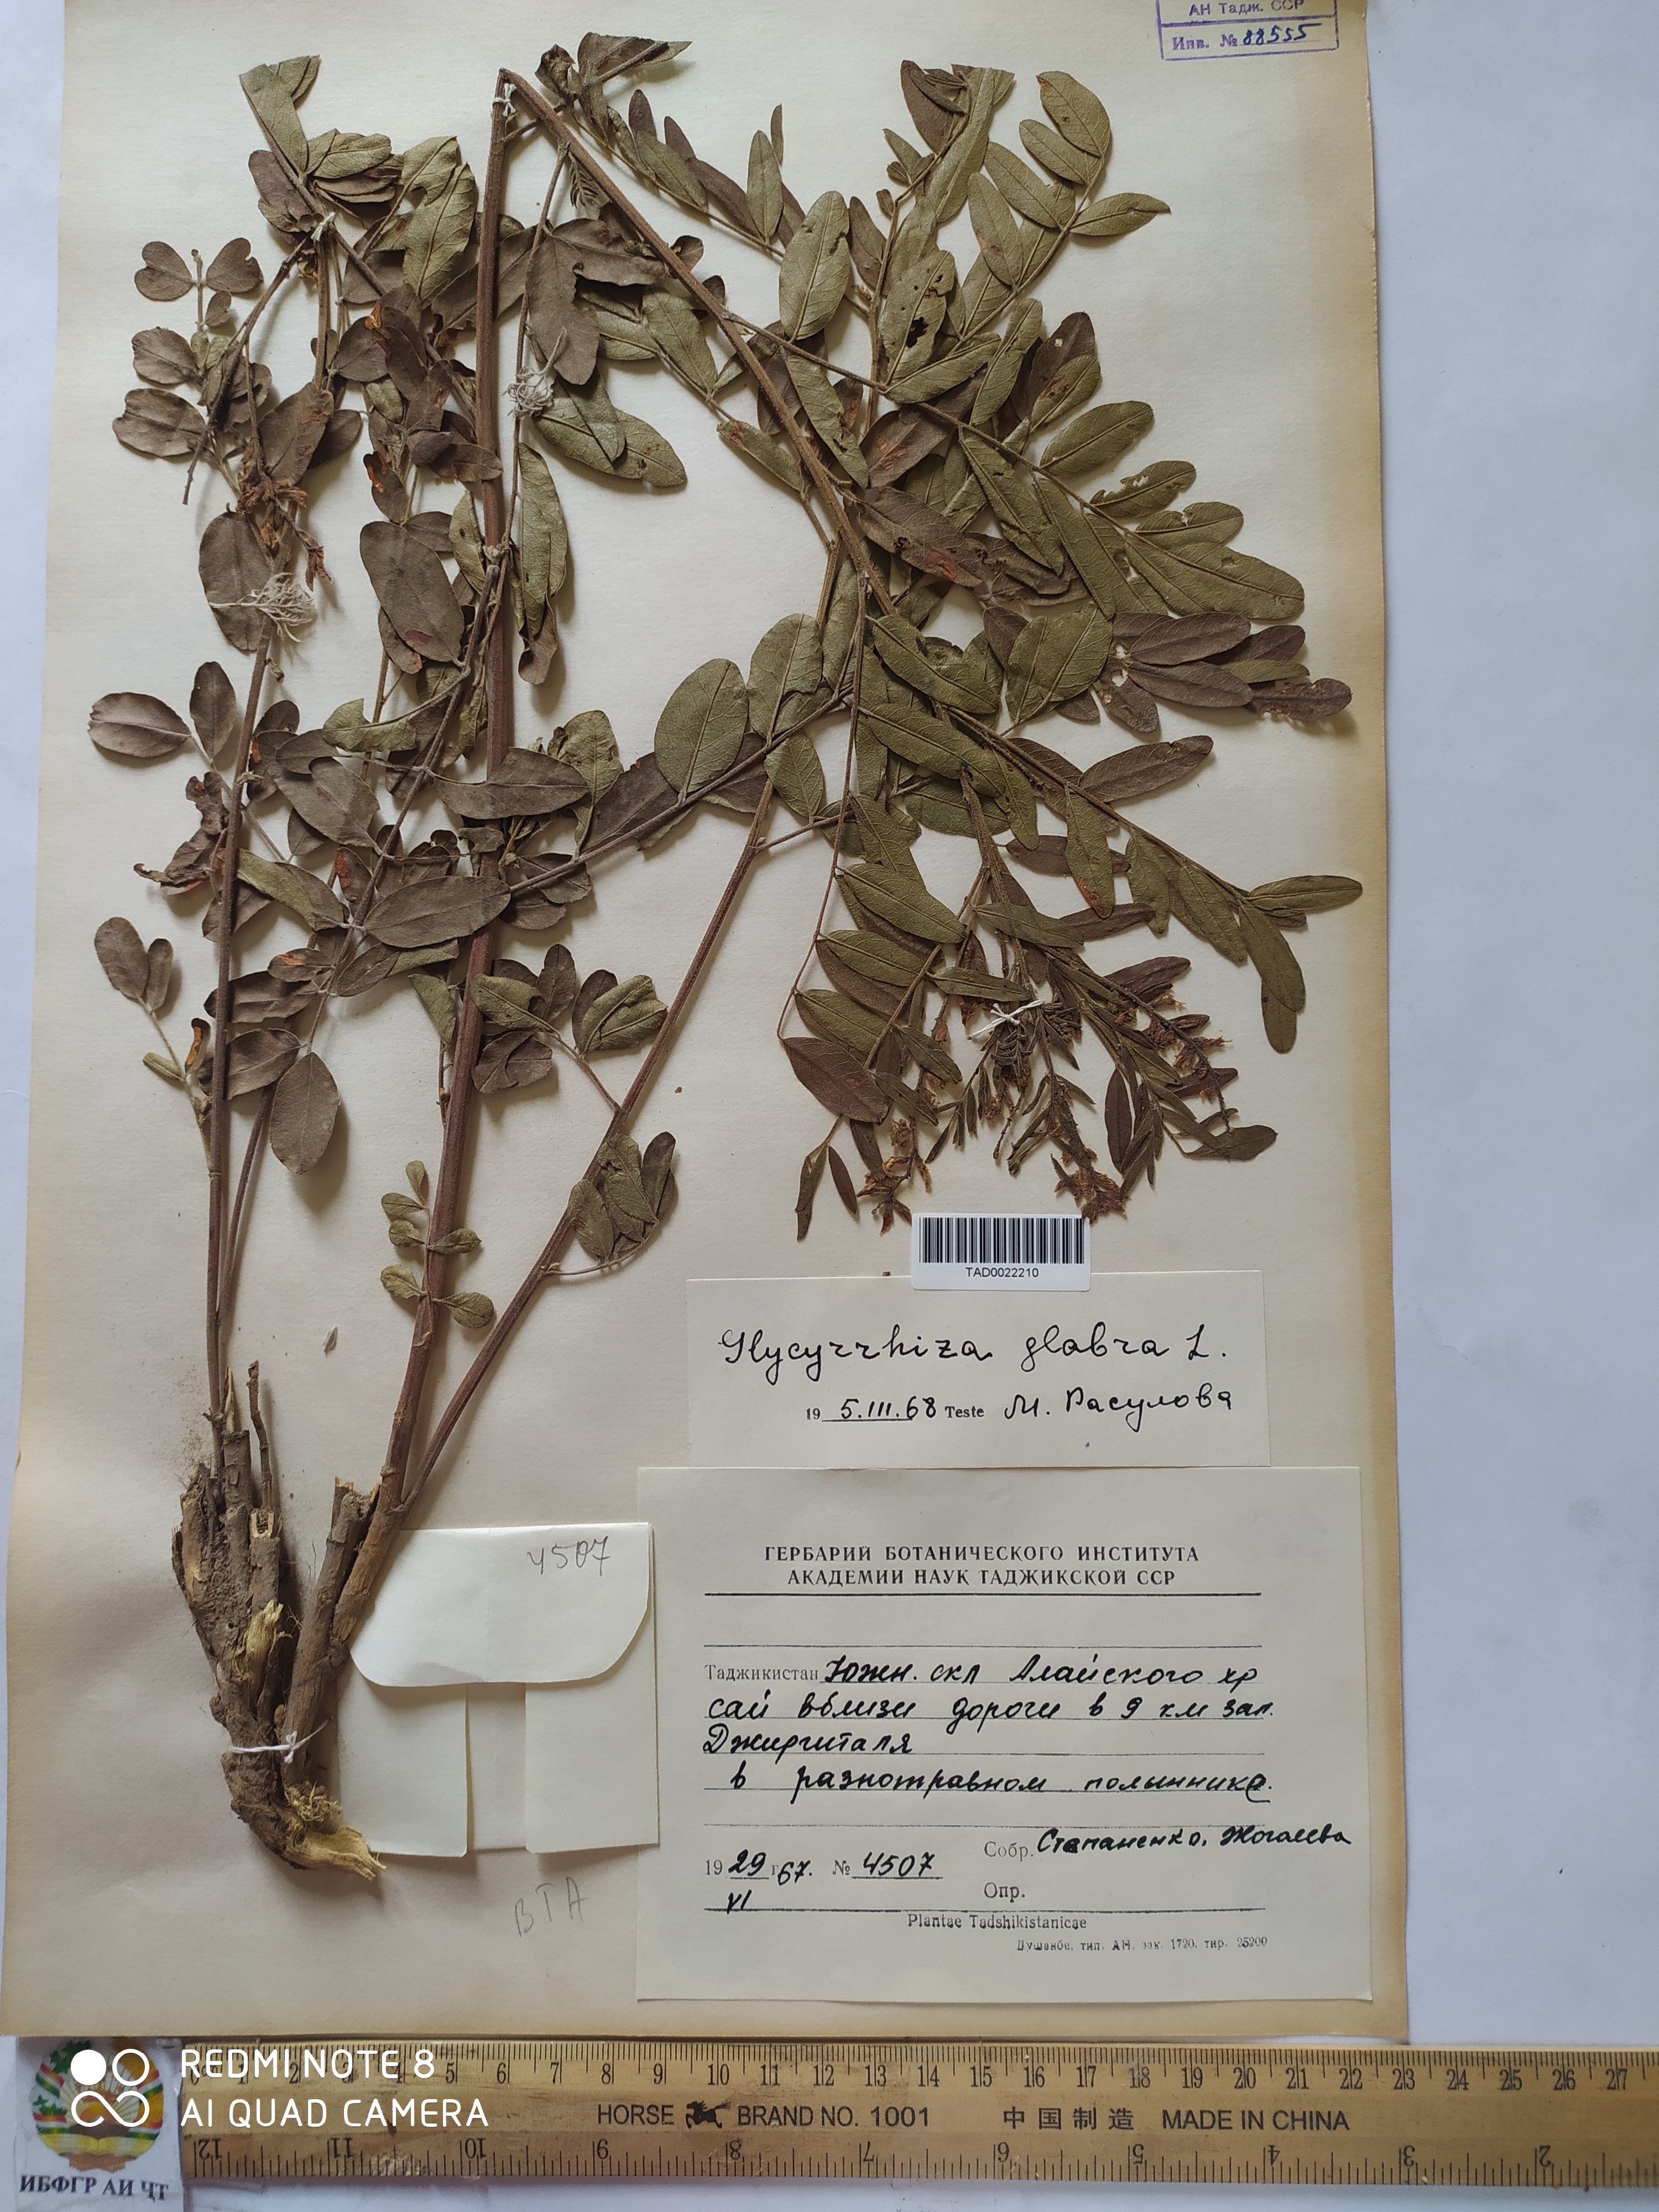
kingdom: Plantae
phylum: Tracheophyta
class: Magnoliopsida
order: Fabales
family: Fabaceae
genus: Glycyrrhiza
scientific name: Glycyrrhiza glabra
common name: Liquorice
